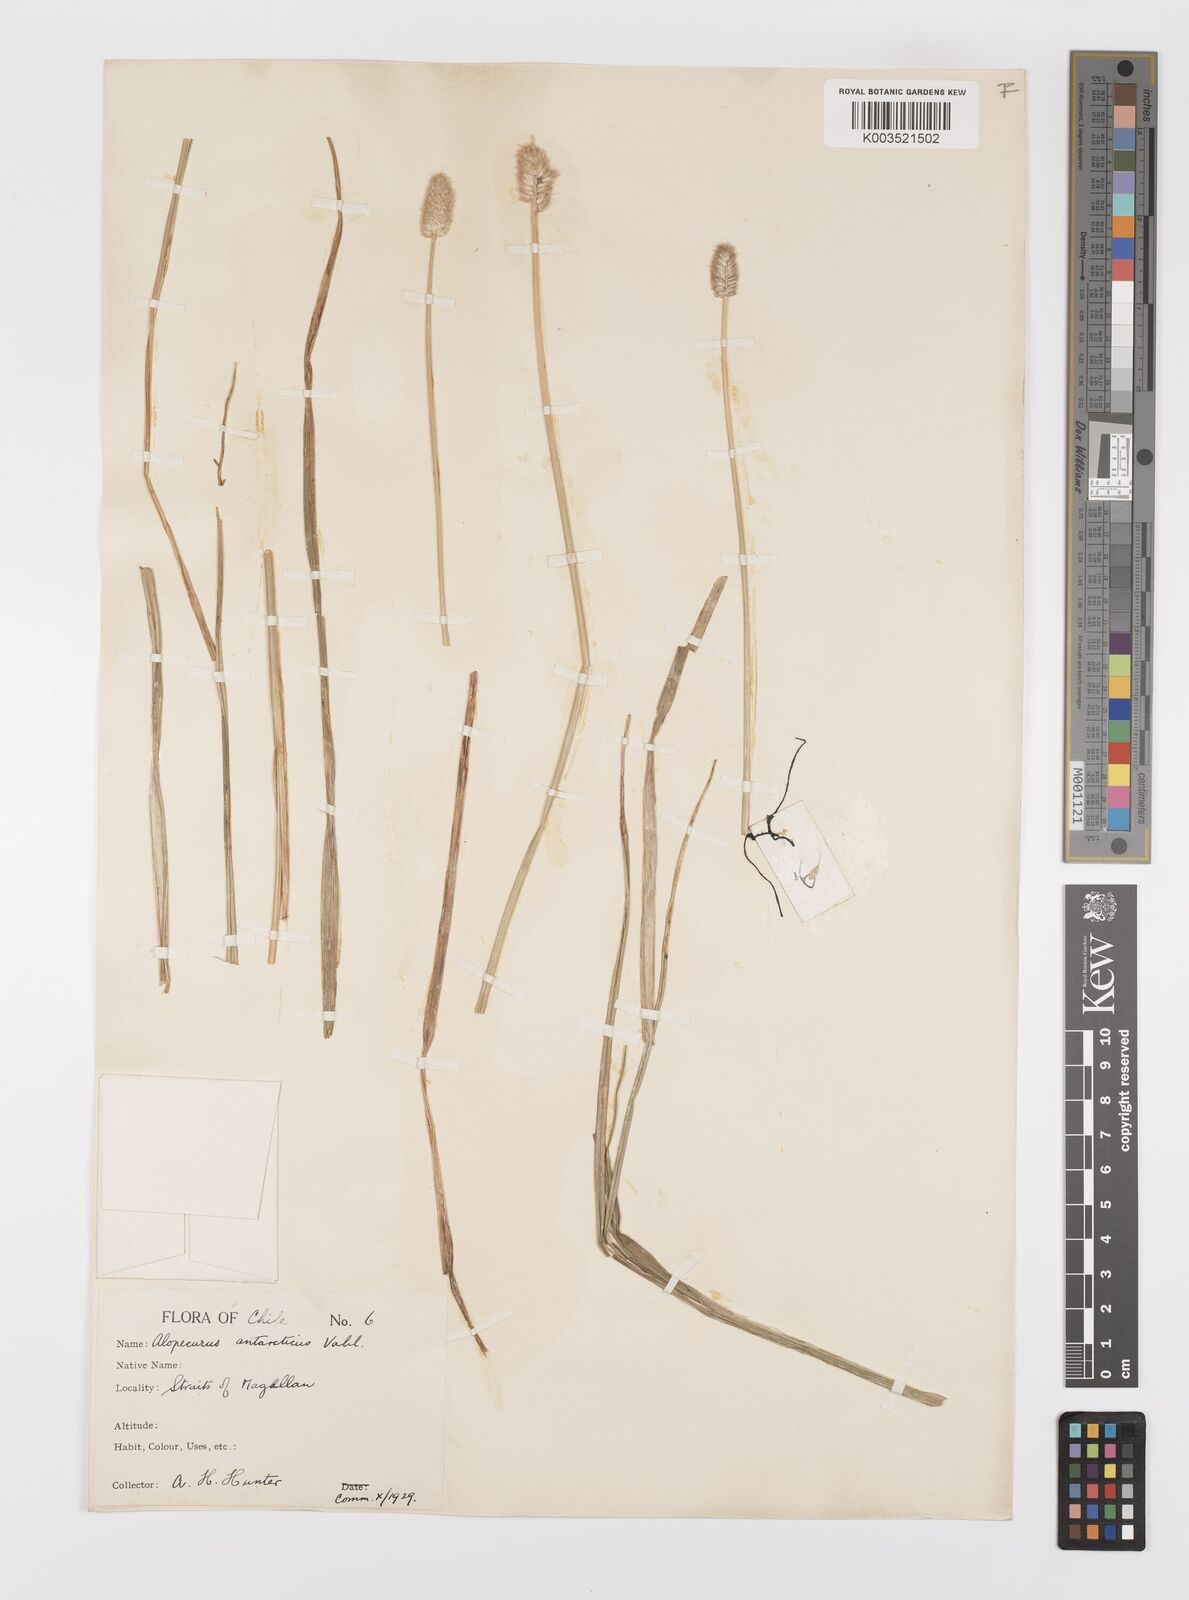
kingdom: Plantae
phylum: Tracheophyta
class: Liliopsida
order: Poales
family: Poaceae
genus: Alopecurus
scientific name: Alopecurus magellanicus
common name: Alpine foxtail
